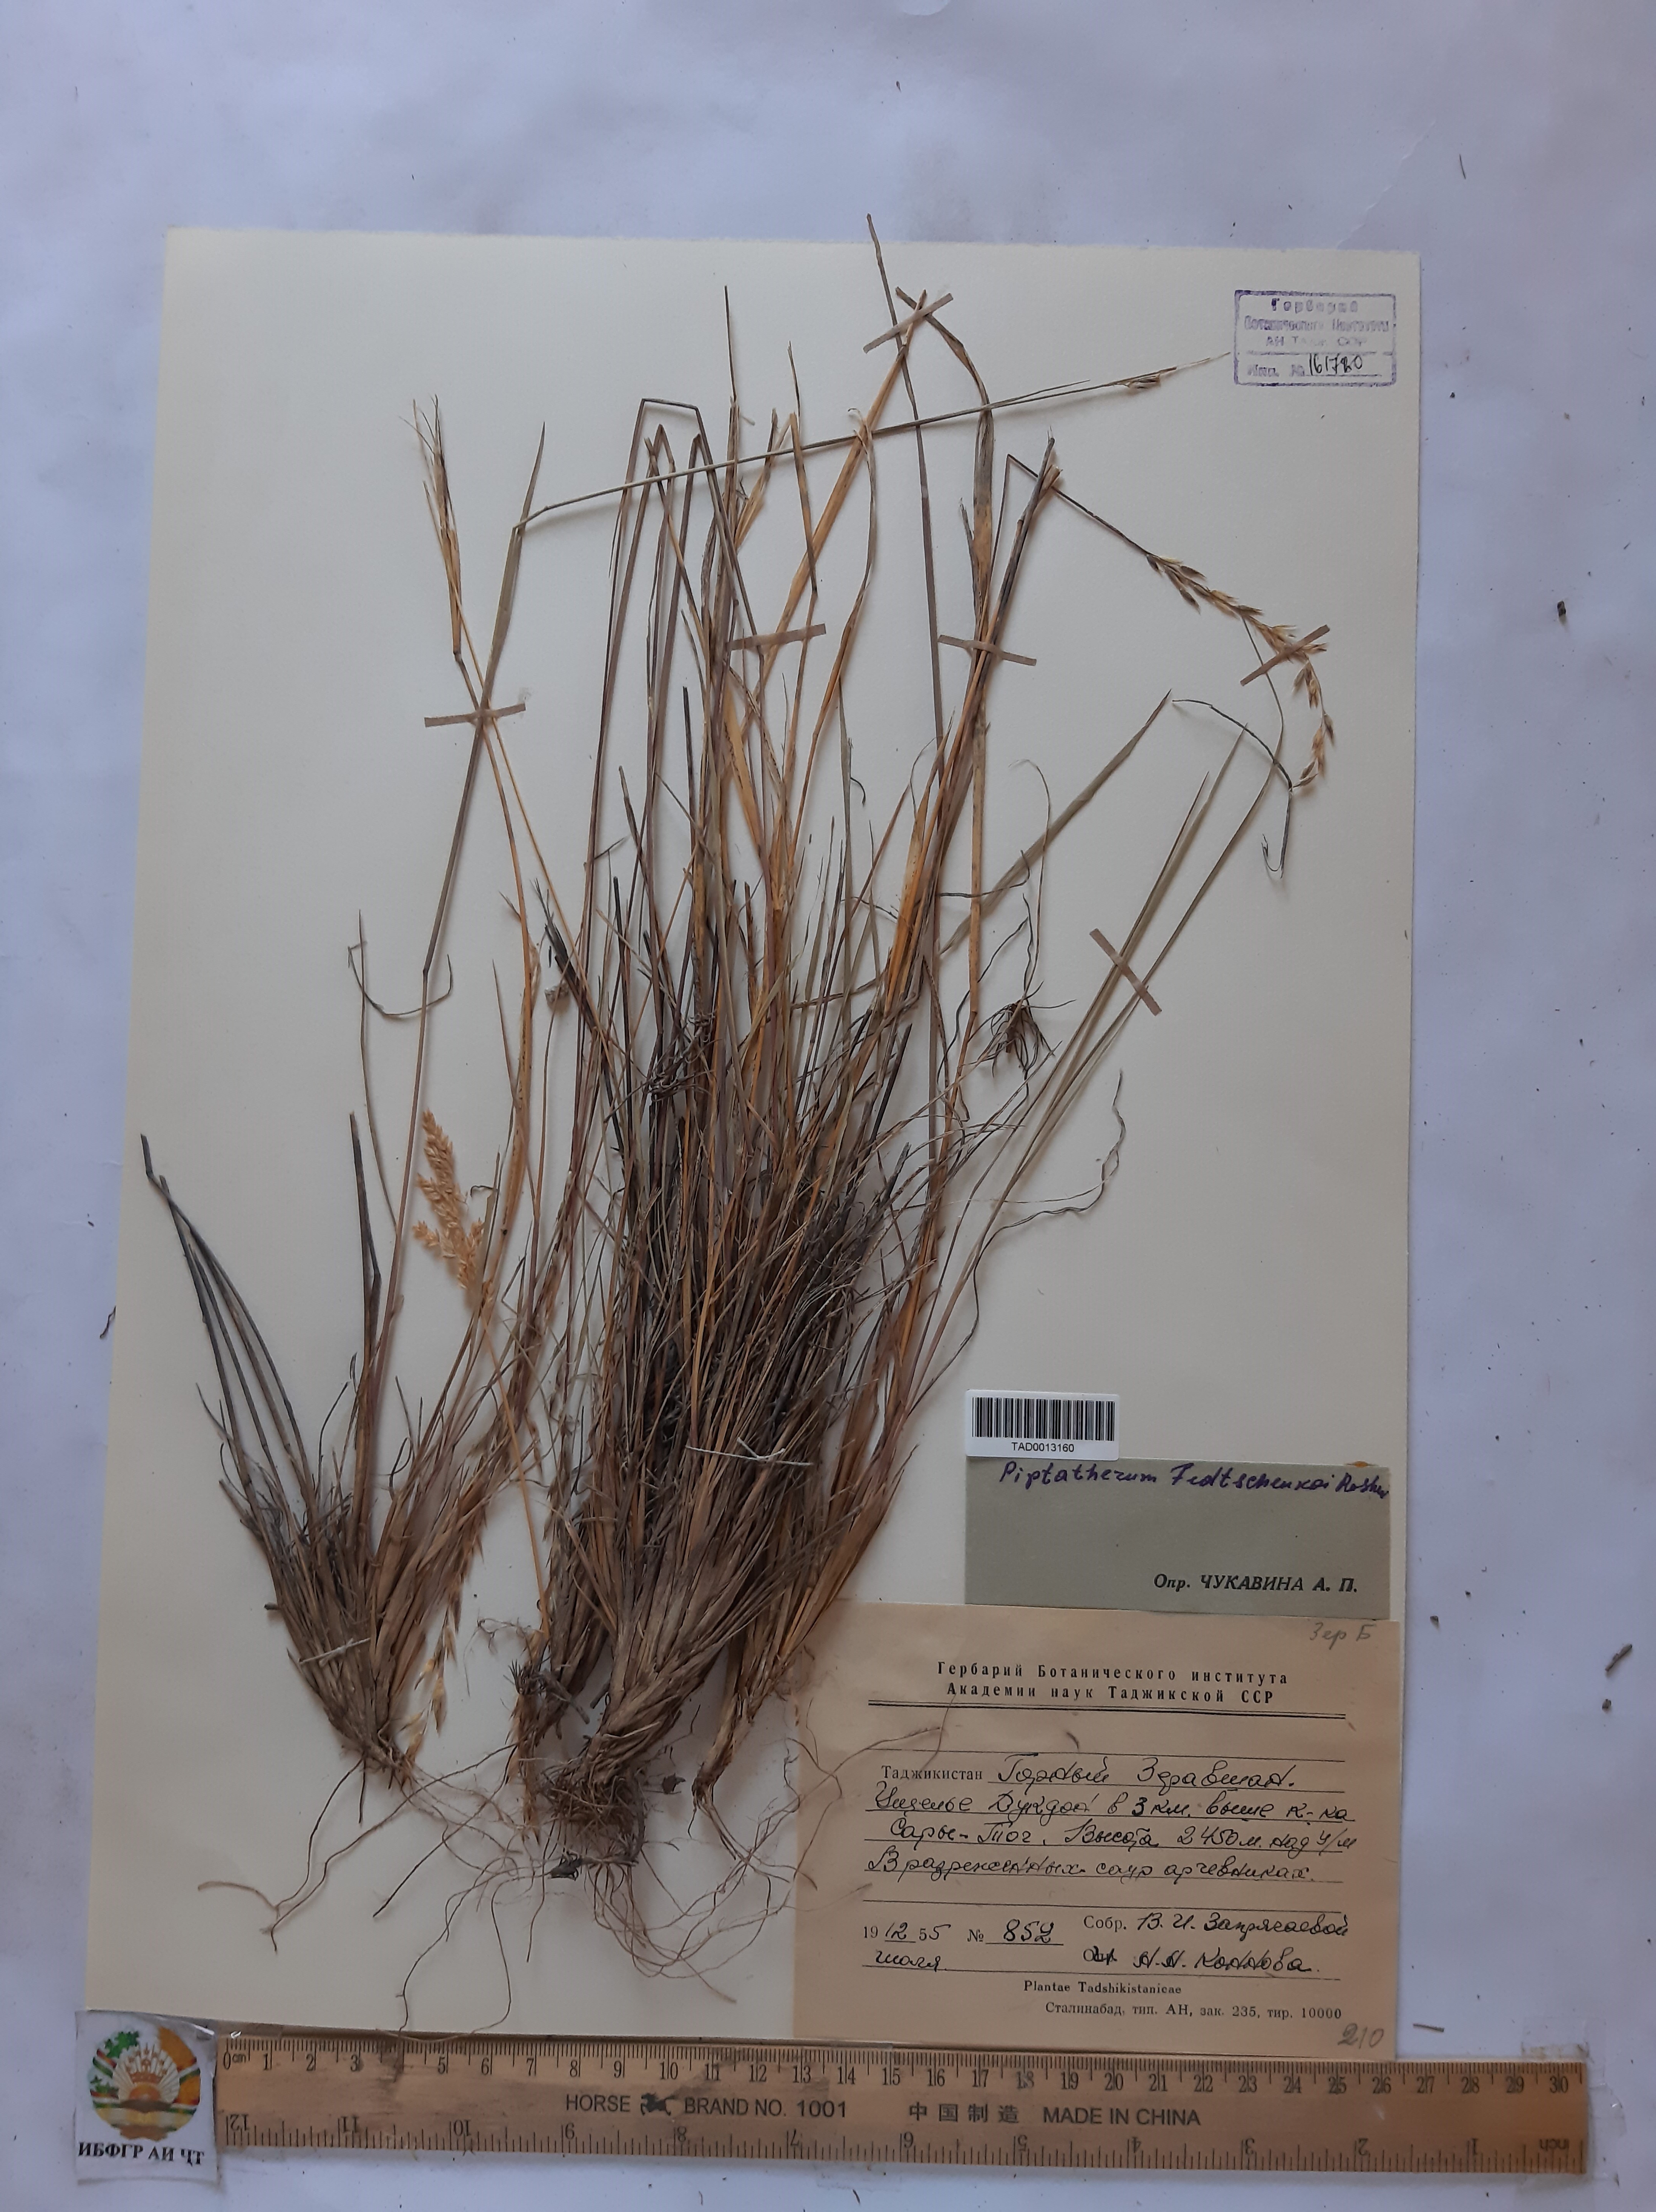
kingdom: Plantae
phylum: Tracheophyta
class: Liliopsida
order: Poales
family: Poaceae
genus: Piptatherum
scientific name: Piptatherum sogdianum
